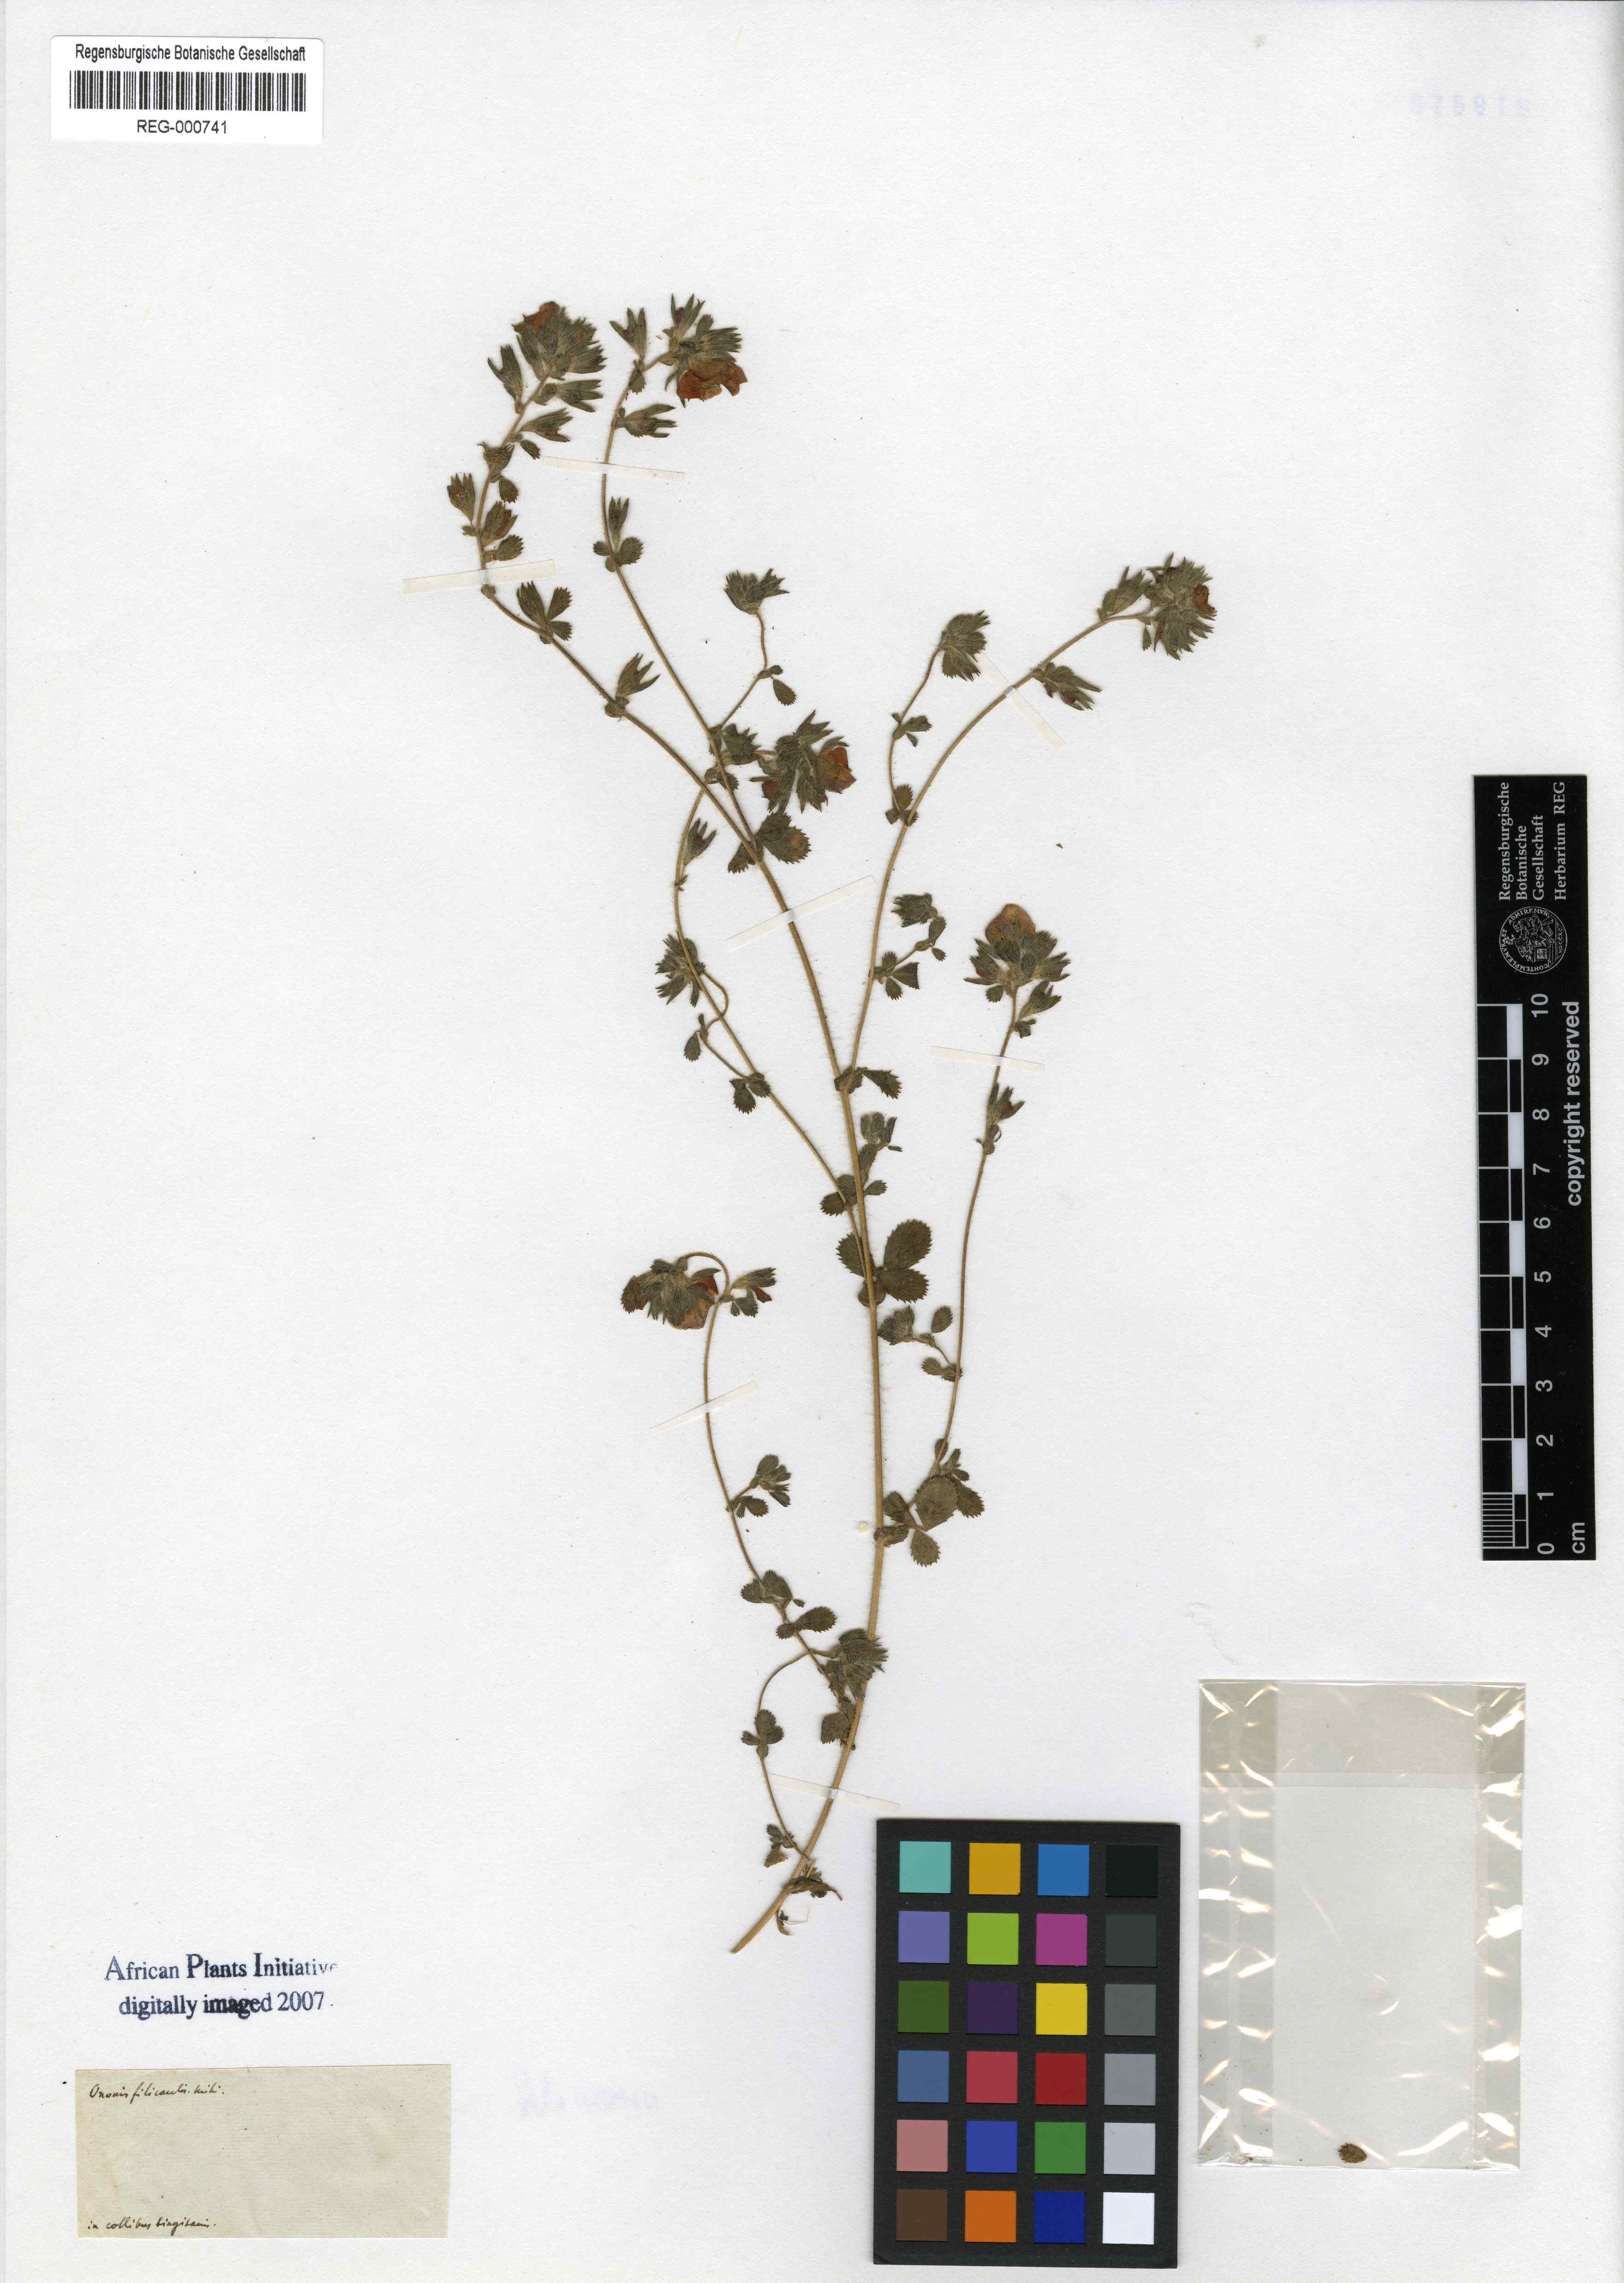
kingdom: Plantae
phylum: Tracheophyta
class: Magnoliopsida
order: Fabales
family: Fabaceae
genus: Ononis
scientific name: Ononis filicaulis
